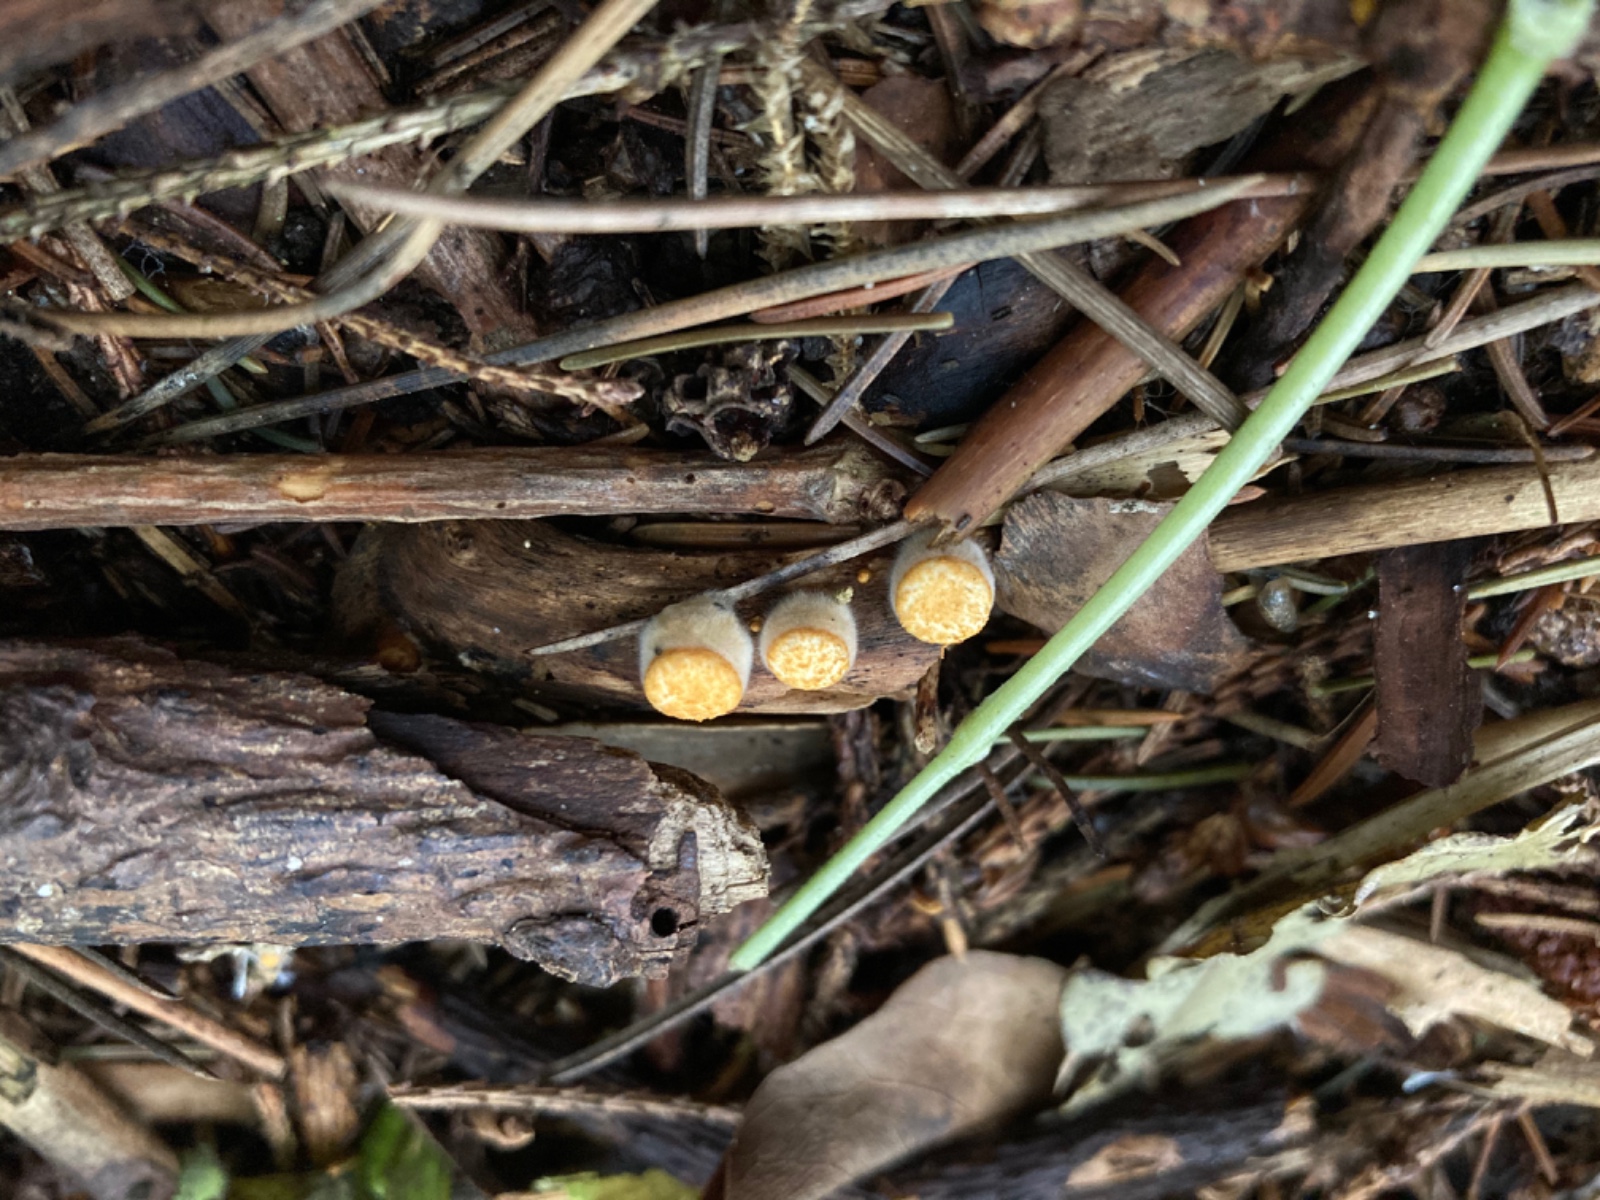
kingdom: Fungi
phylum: Basidiomycota
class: Agaricomycetes
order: Agaricales
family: Nidulariaceae
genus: Crucibulum
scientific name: Crucibulum crucibuliforme
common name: krukkesvamp
